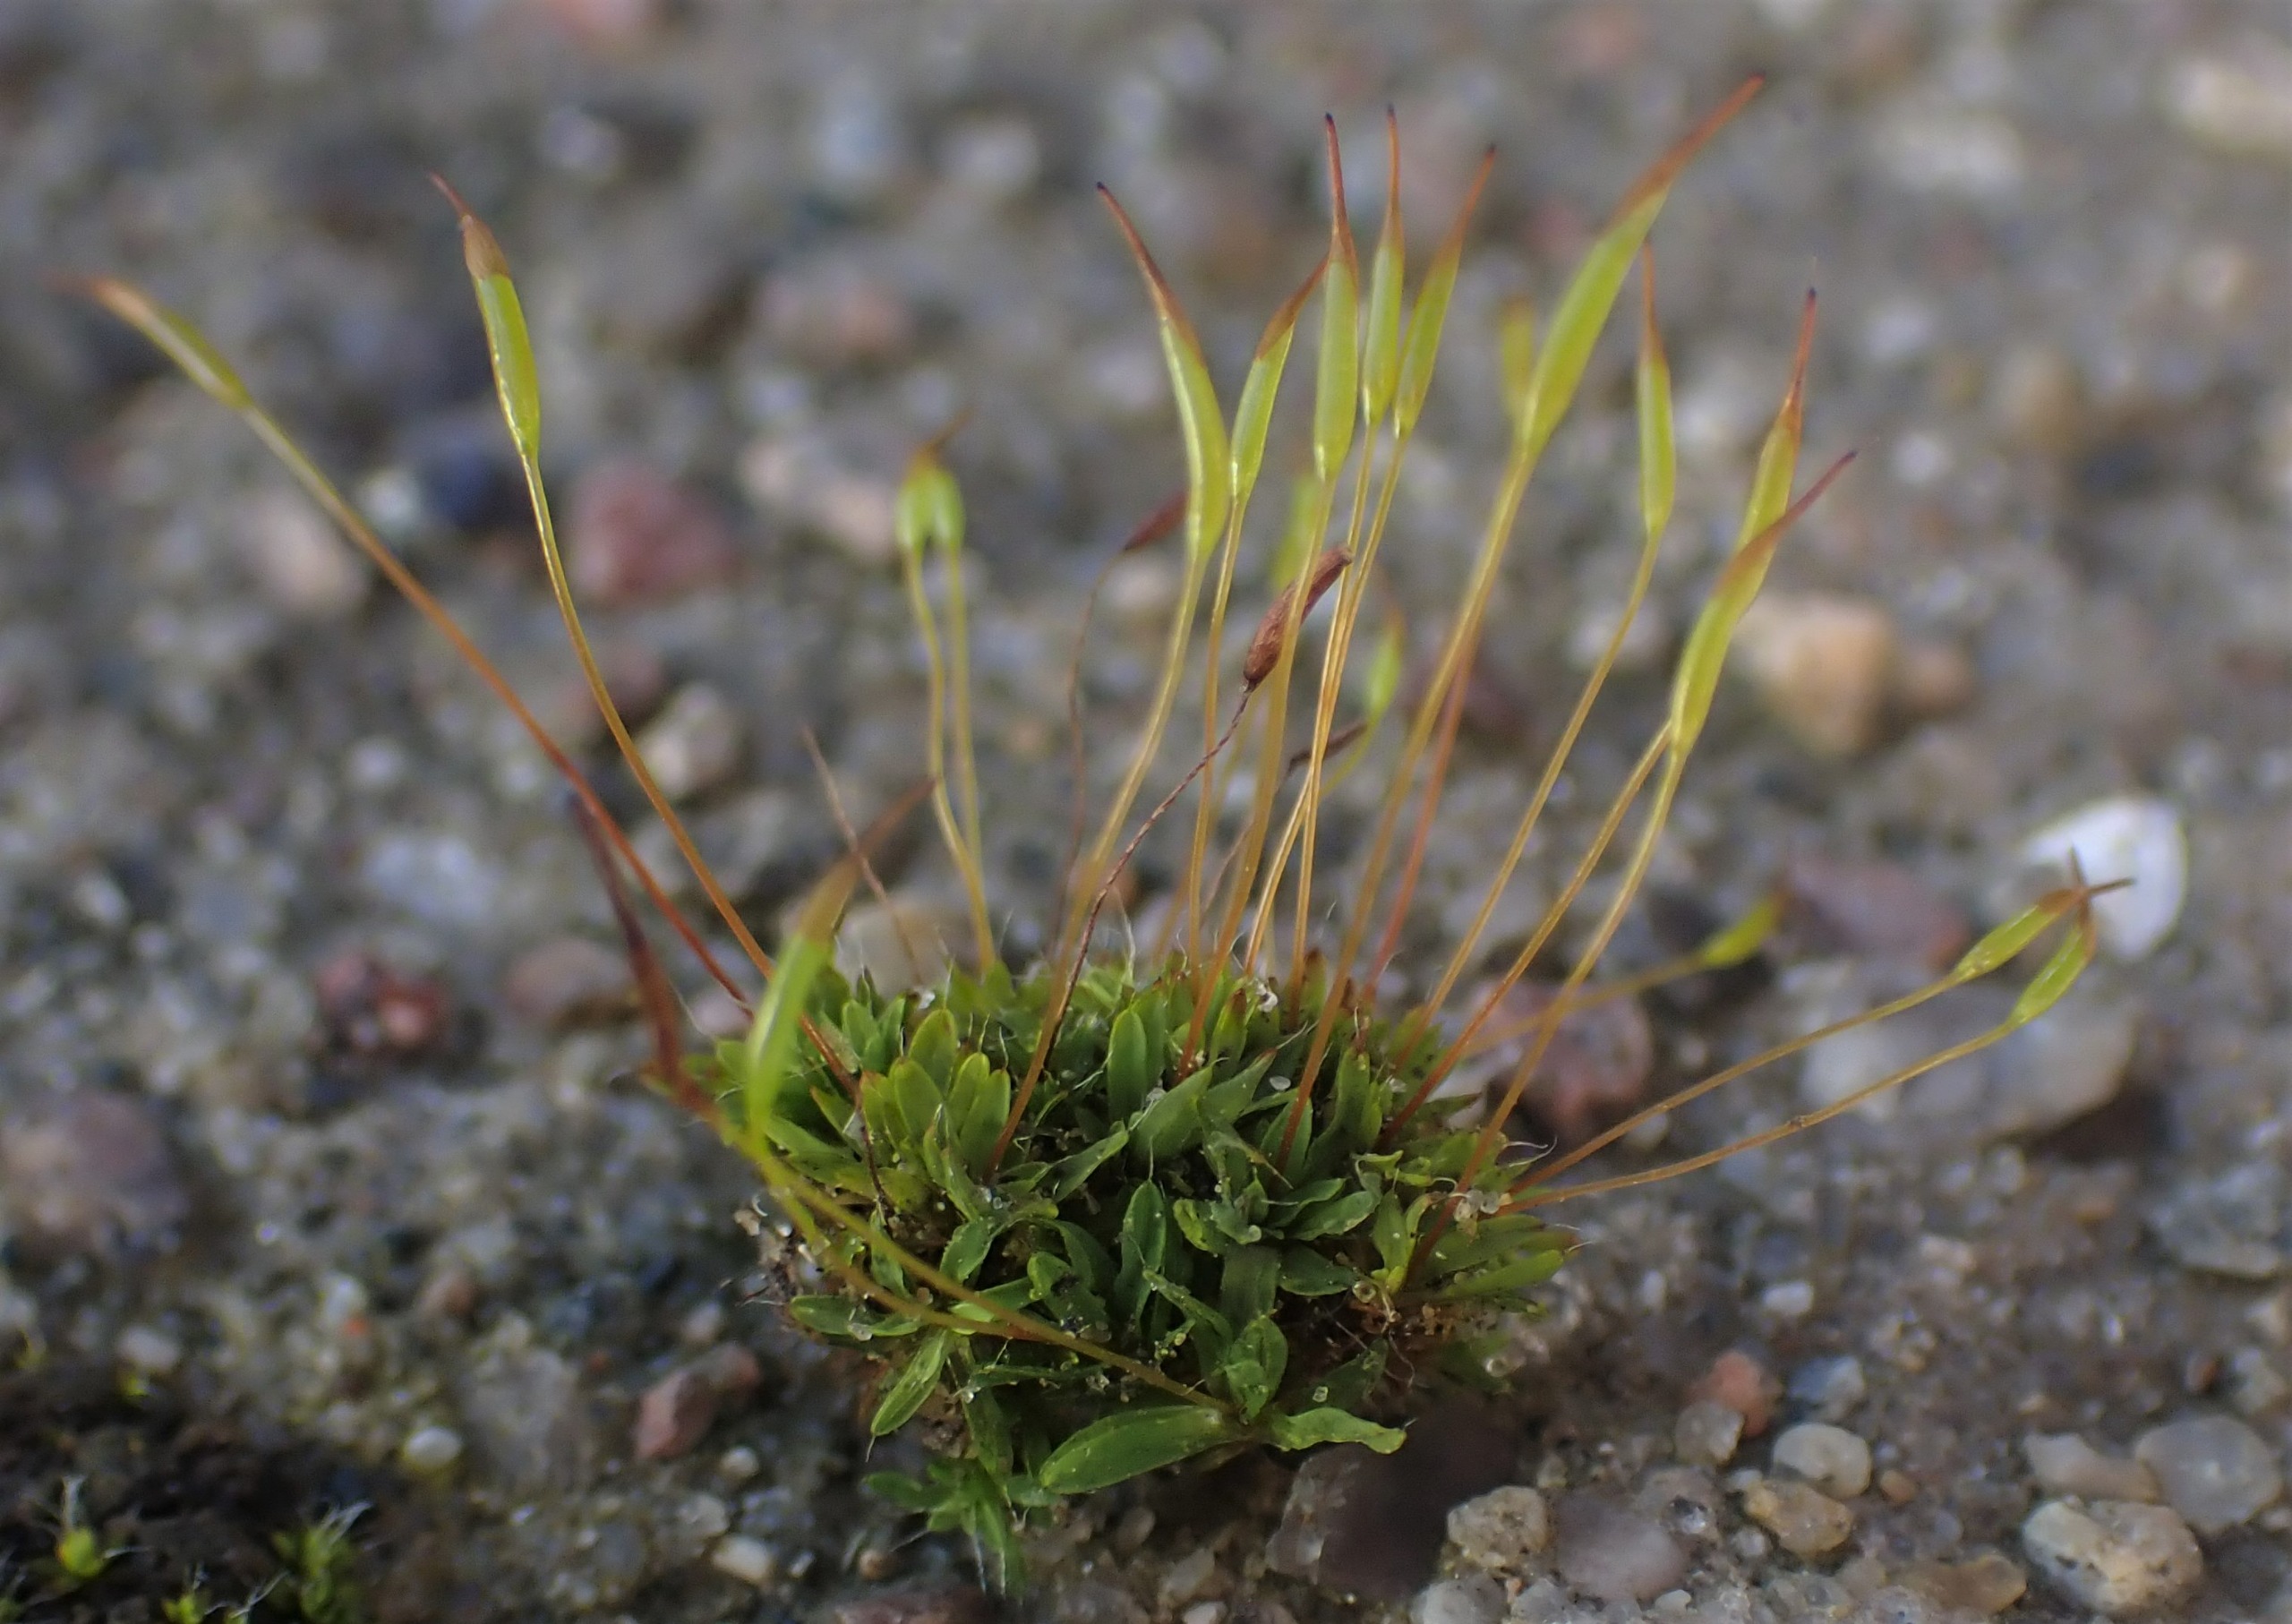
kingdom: Plantae
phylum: Bryophyta
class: Bryopsida
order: Pottiales
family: Pottiaceae
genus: Tortula
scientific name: Tortula muralis
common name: Mur-snotand
